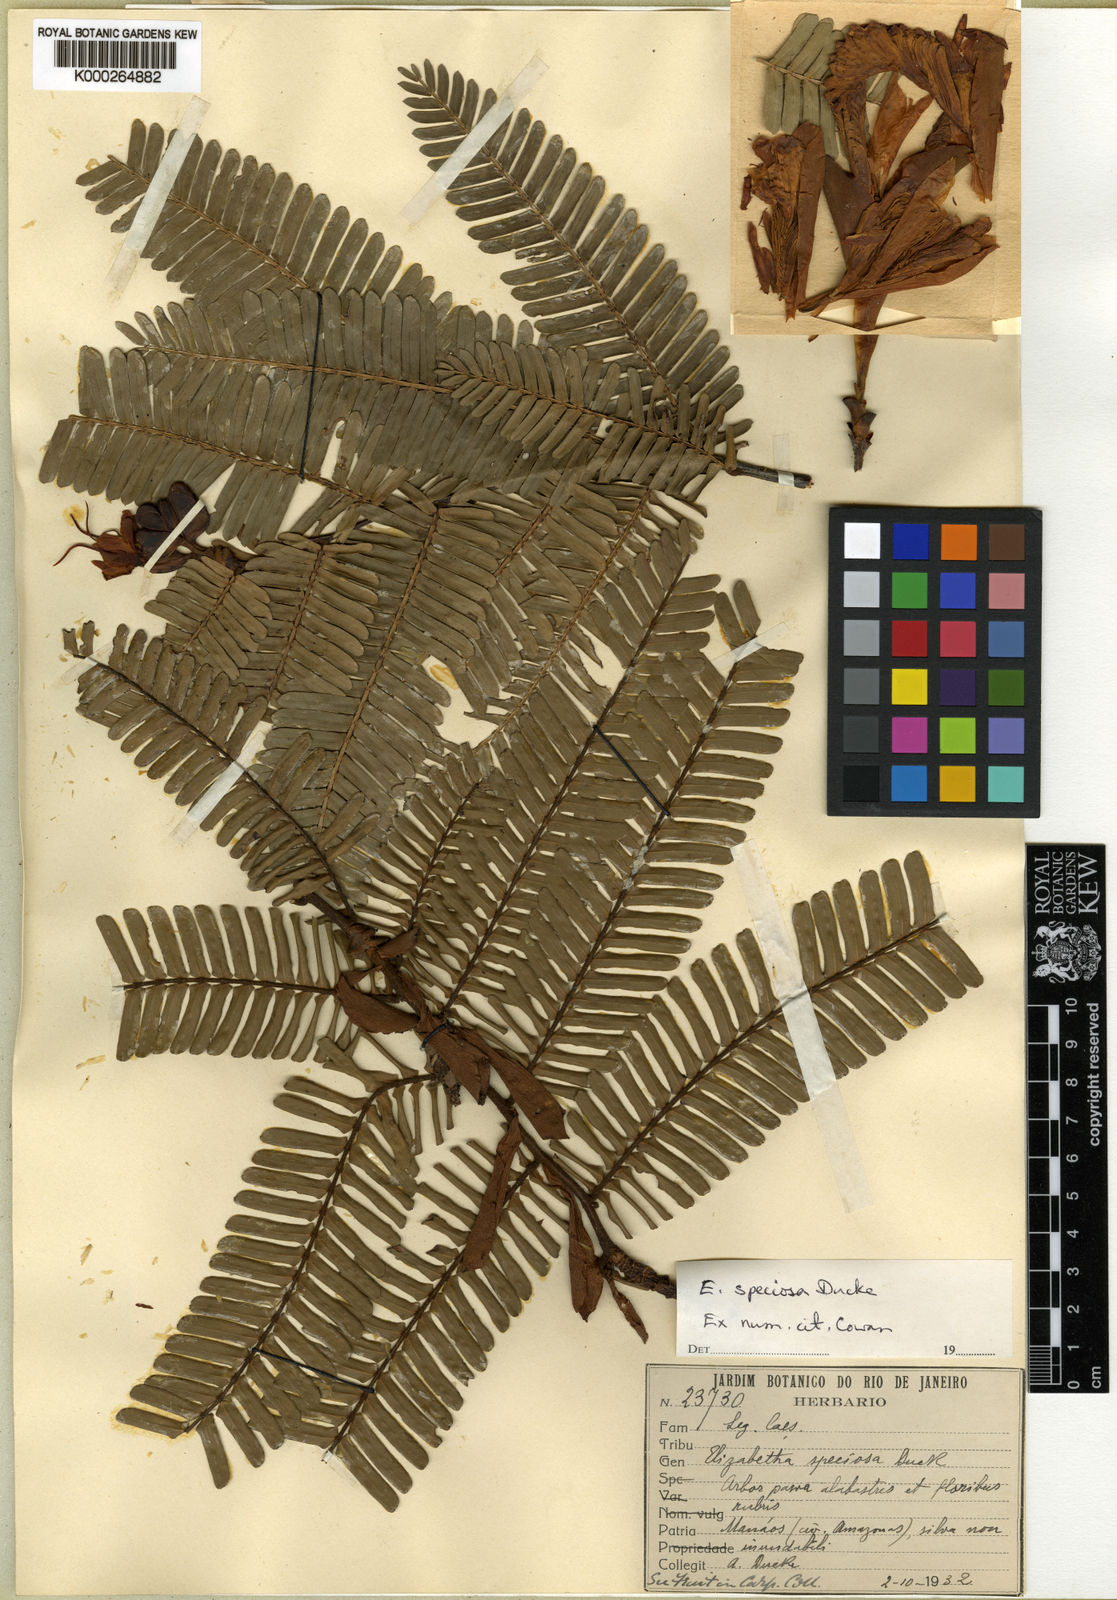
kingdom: Plantae
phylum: Tracheophyta
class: Magnoliopsida
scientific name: Magnoliopsida
